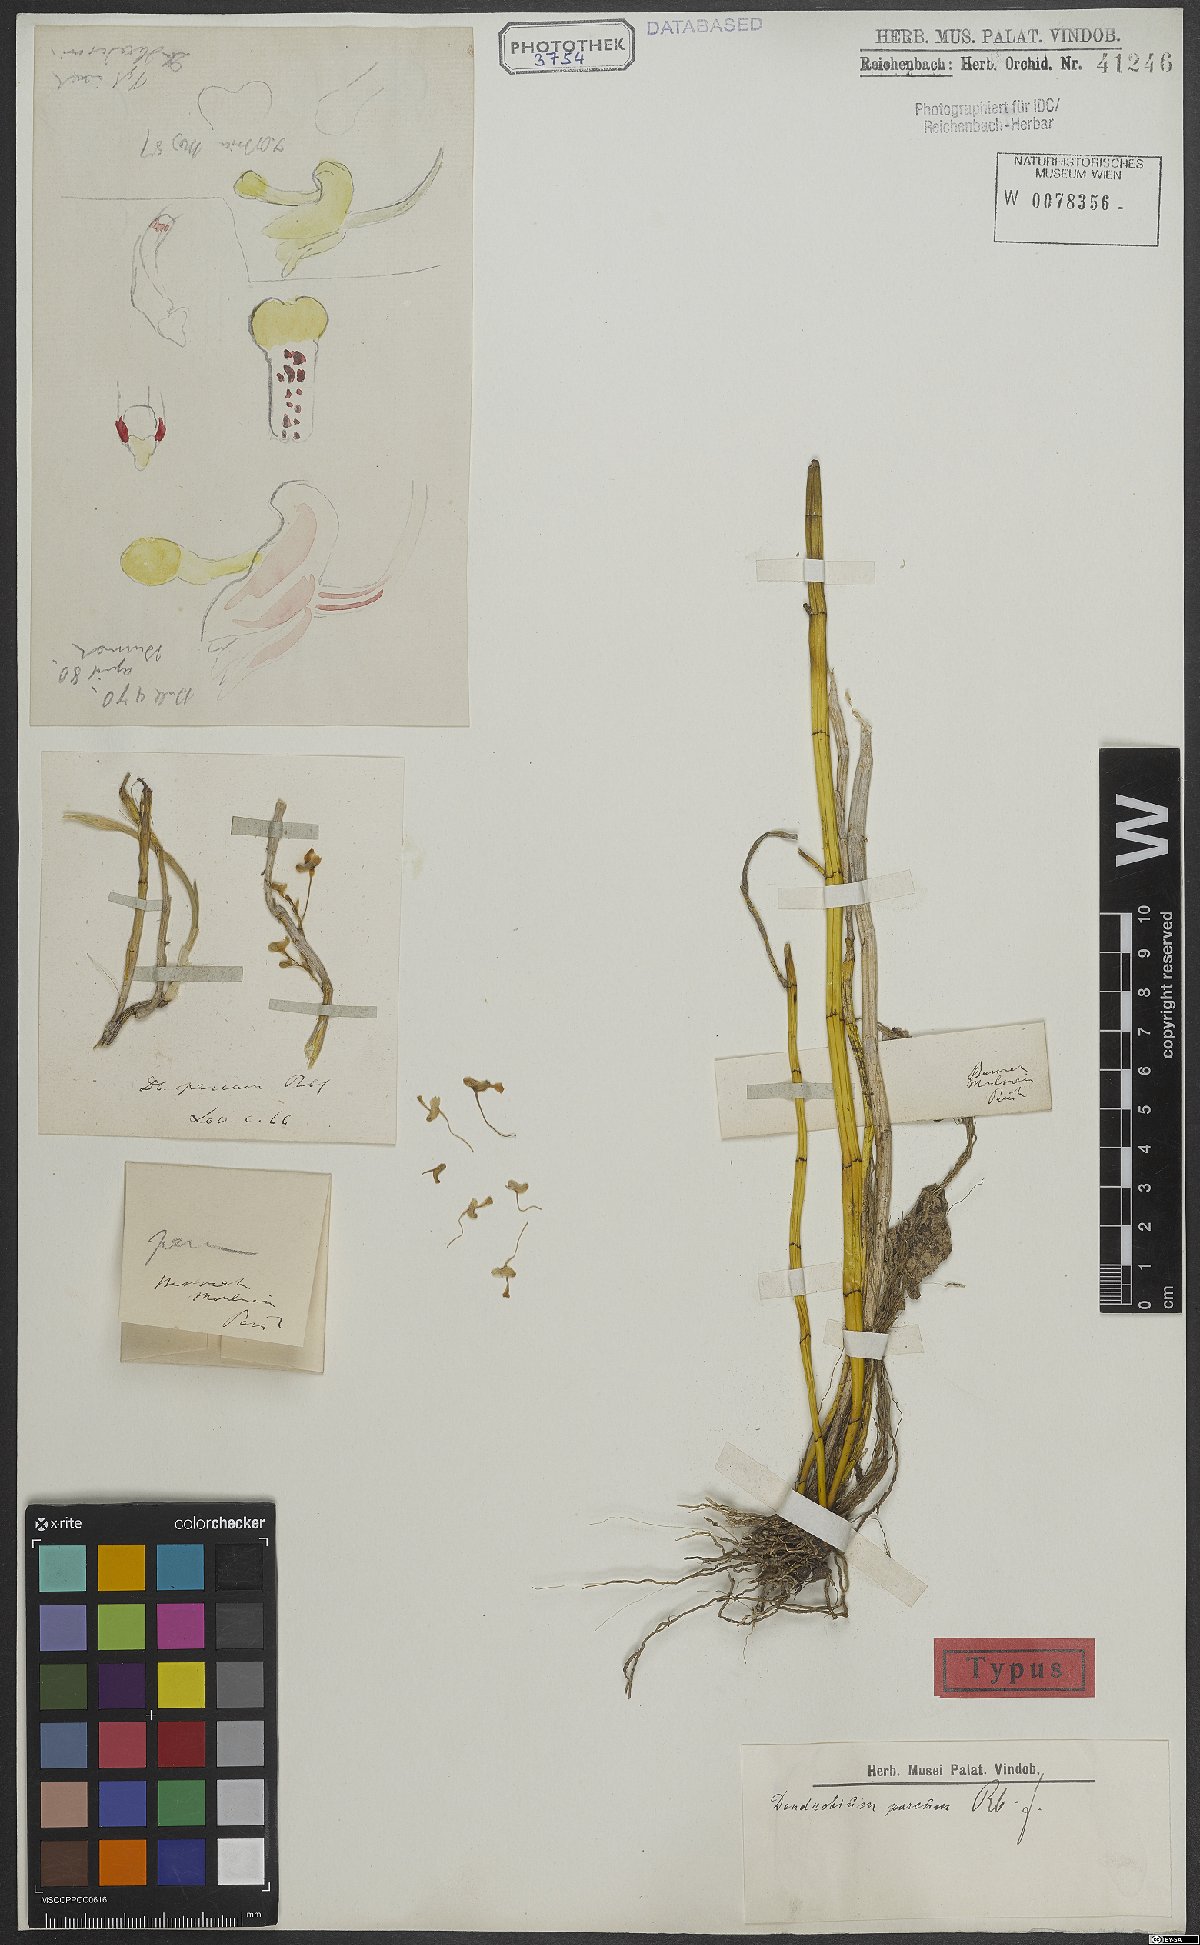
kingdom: Plantae
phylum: Tracheophyta
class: Liliopsida
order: Asparagales
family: Orchidaceae
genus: Dendrobium
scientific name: Dendrobium parcum
